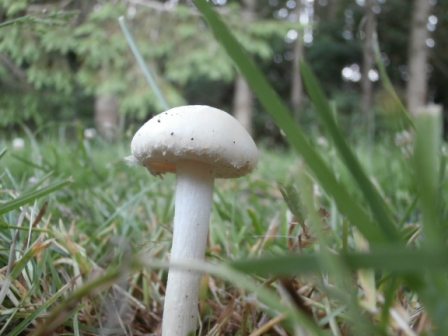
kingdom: Fungi
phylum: Basidiomycota
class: Agaricomycetes
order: Agaricales
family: Strophariaceae
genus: Agrocybe
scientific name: Agrocybe dura
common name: fastkødet agerhat
